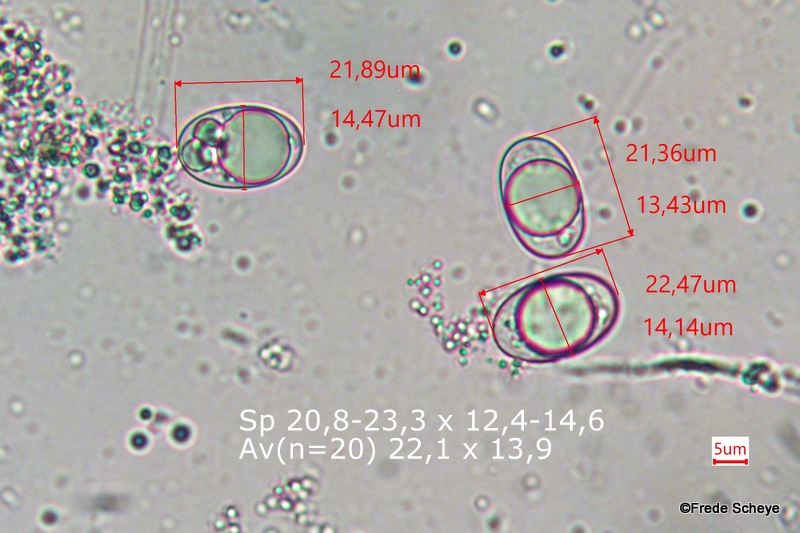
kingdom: Fungi
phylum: Ascomycota
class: Pezizomycetes
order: Pezizales
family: Helvellaceae
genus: Dissingia
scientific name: Dissingia leucomelaena
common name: sorthvid foldhat
